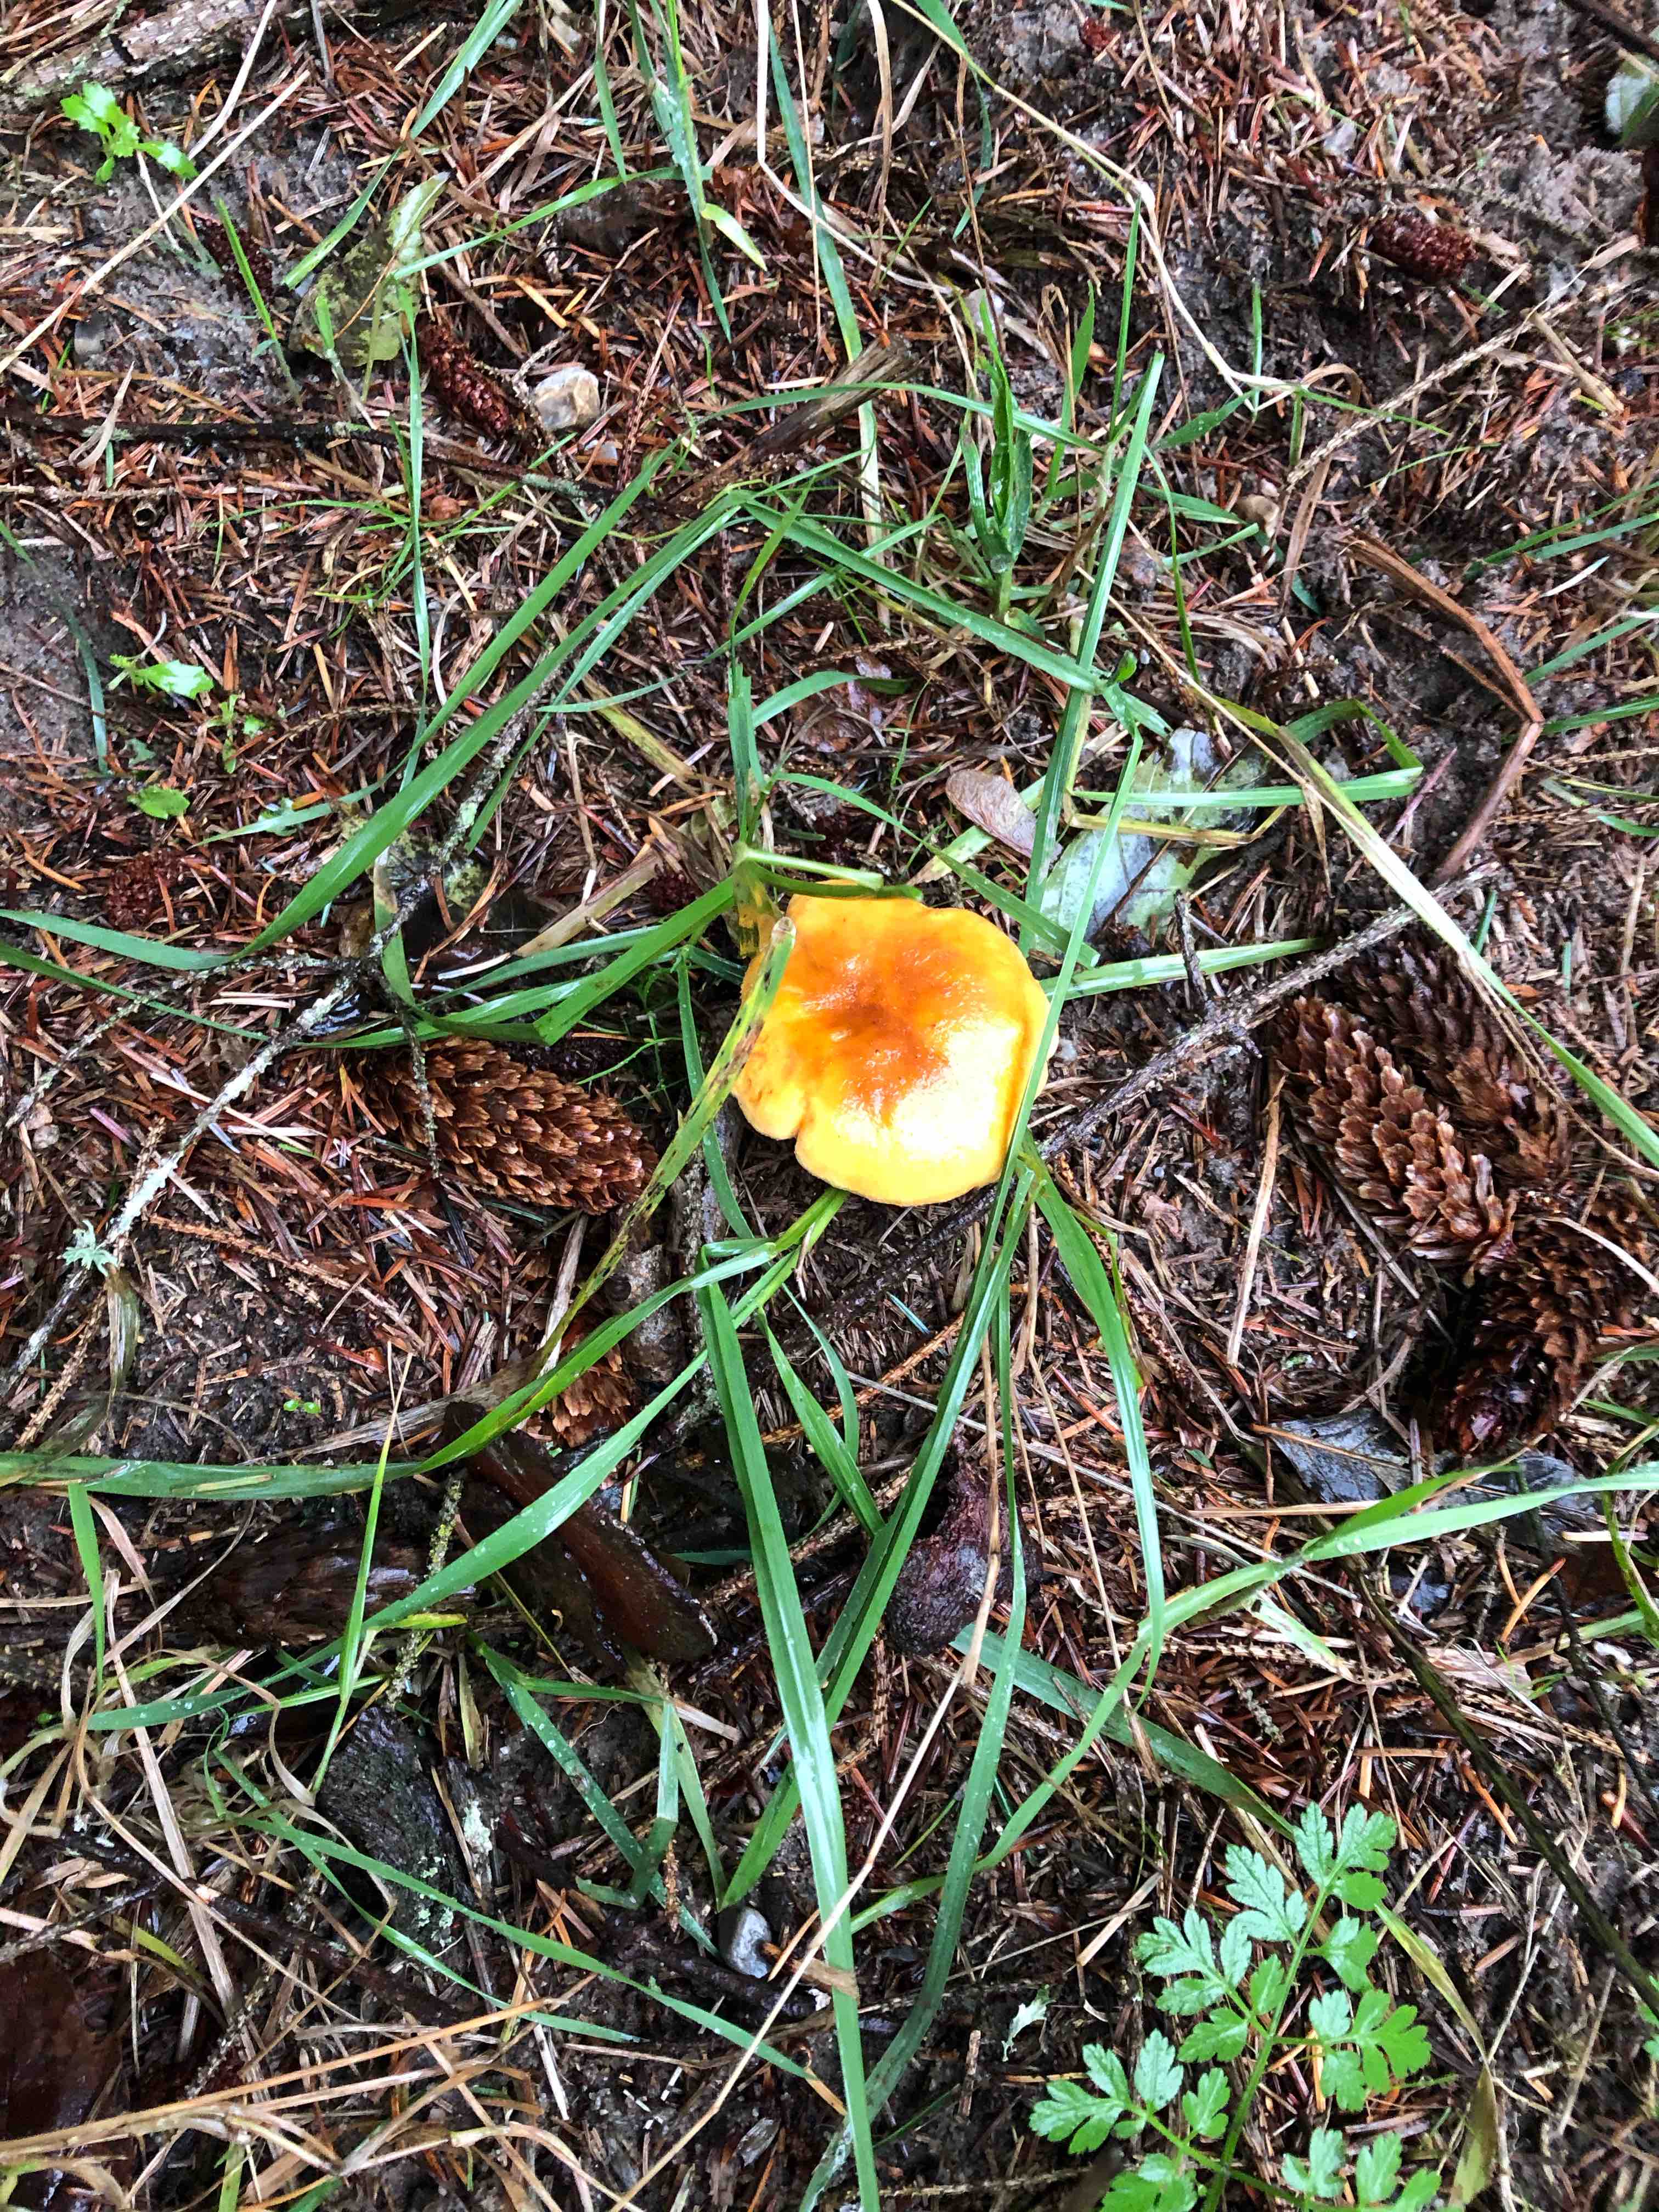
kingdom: Fungi
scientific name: Fungi
